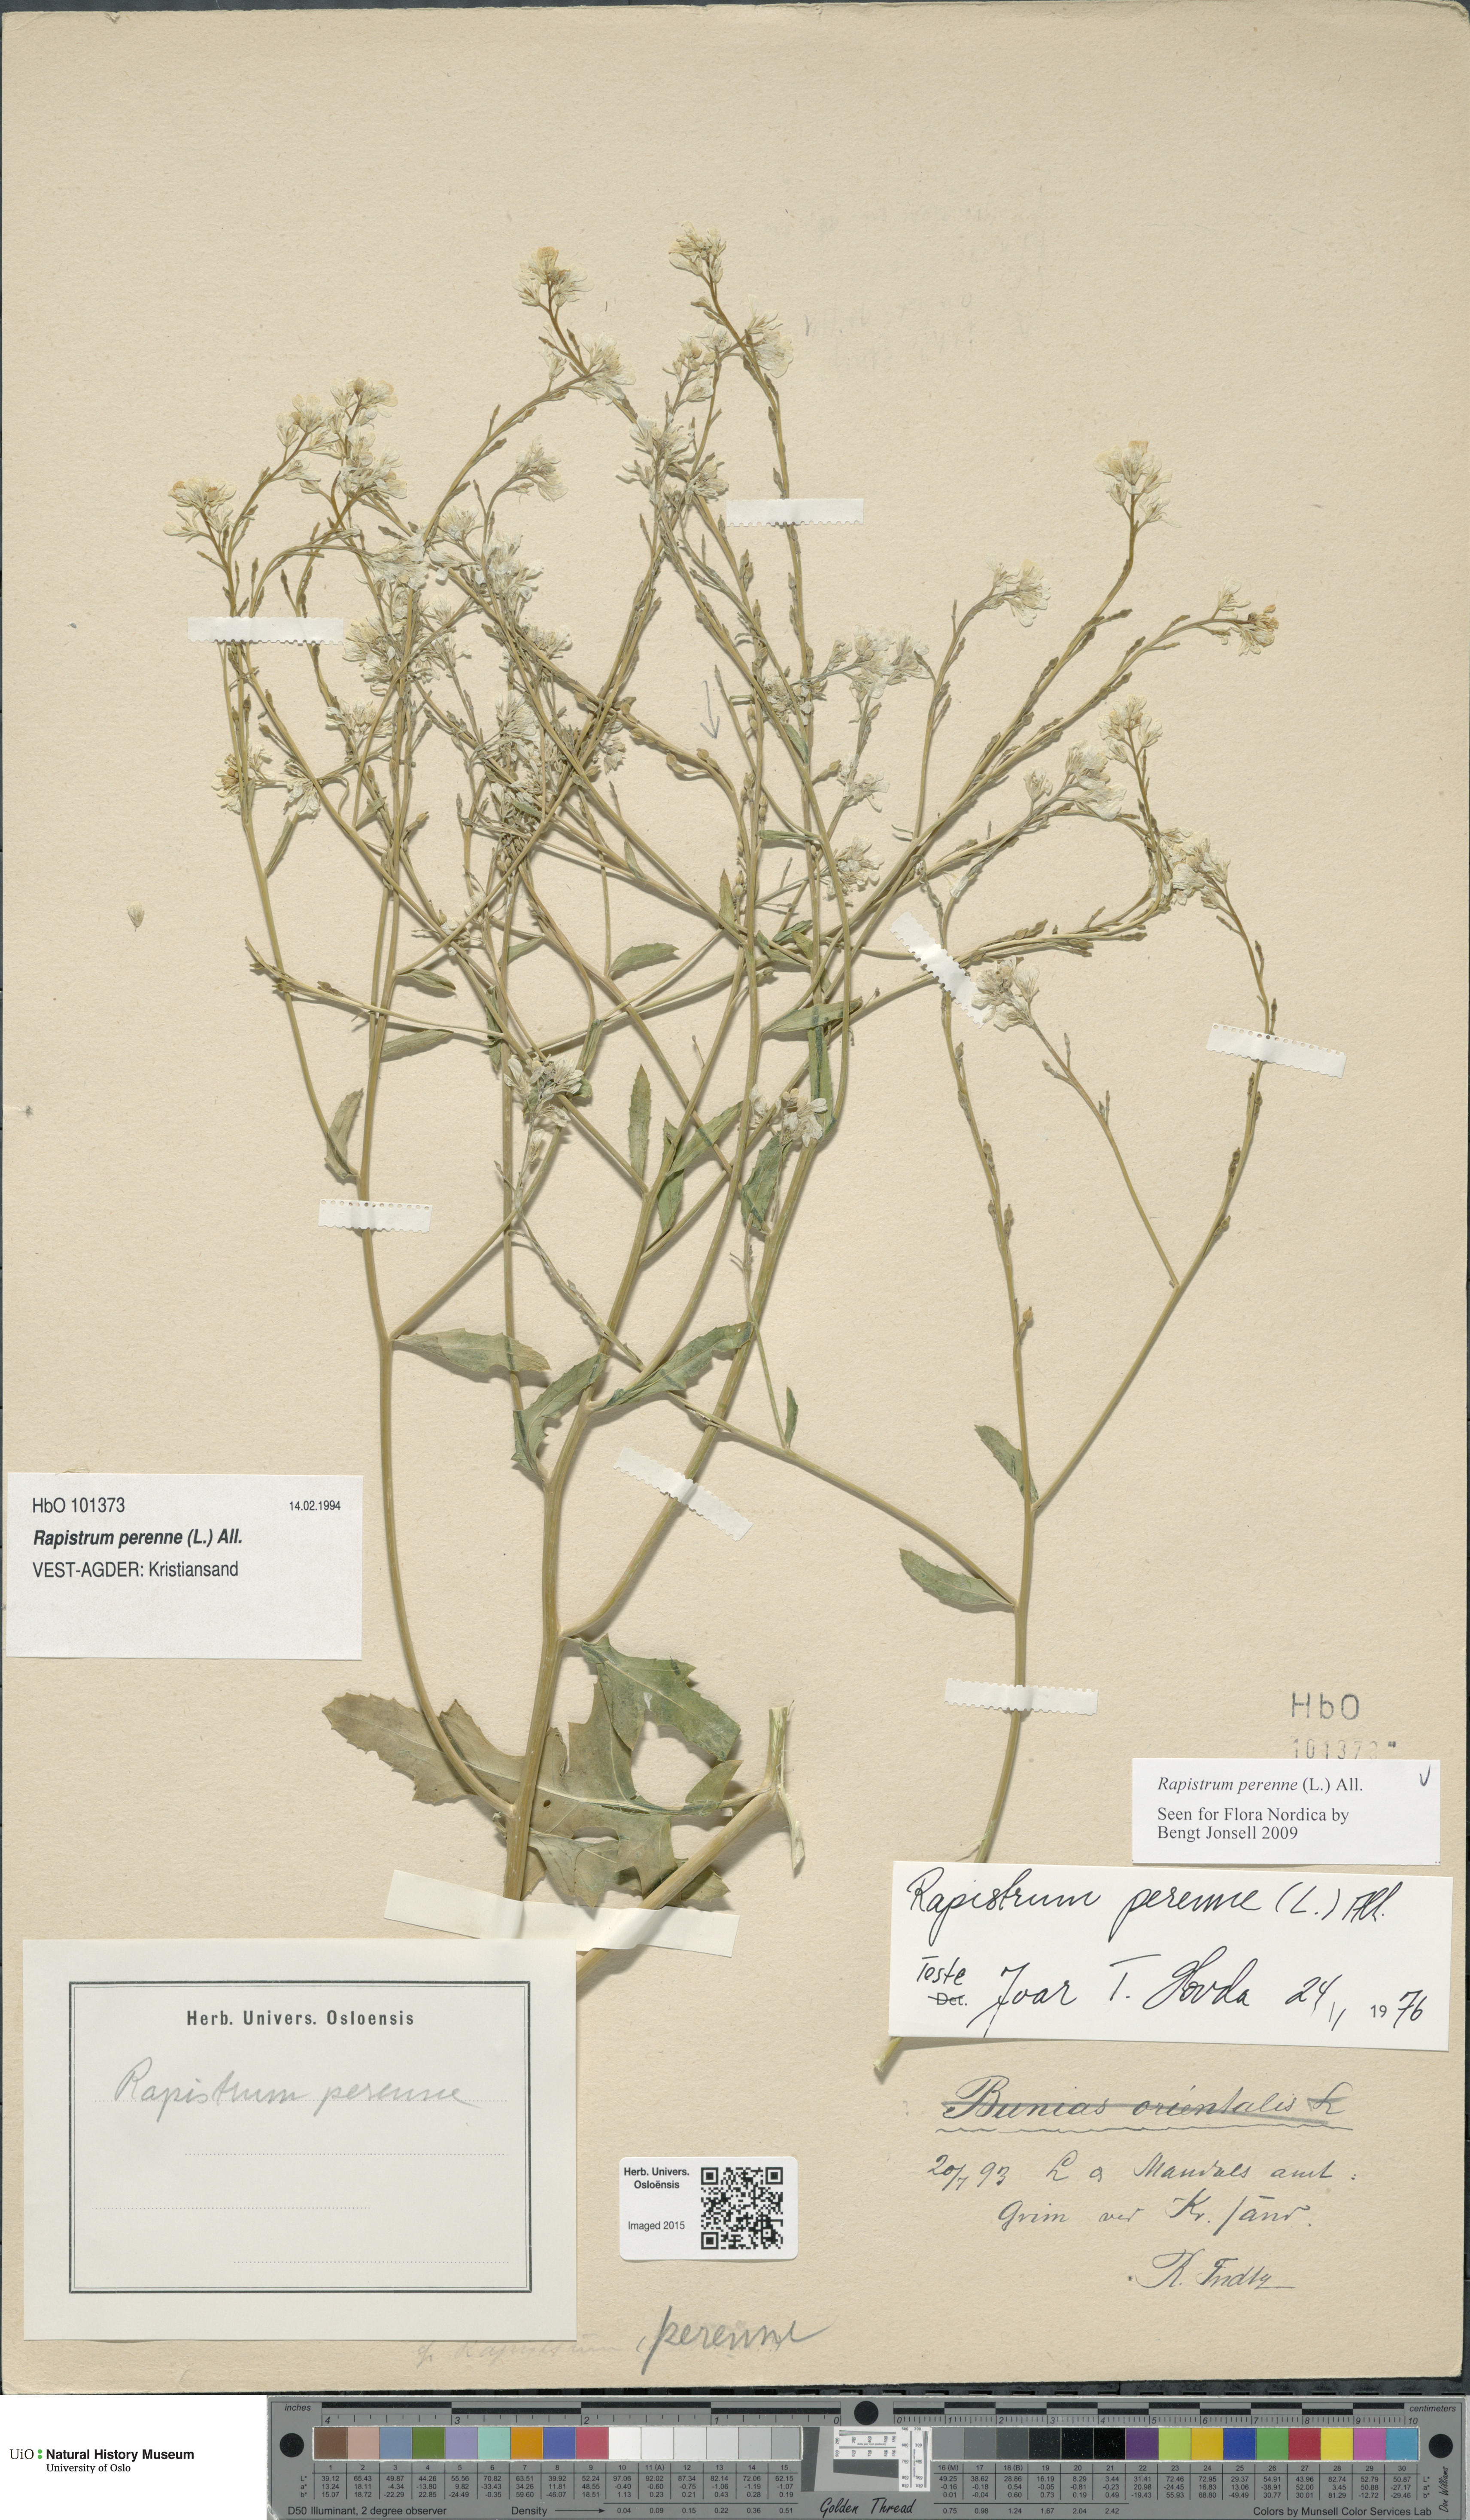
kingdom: Plantae
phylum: Tracheophyta
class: Magnoliopsida
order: Brassicales
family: Brassicaceae
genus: Rapistrum
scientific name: Rapistrum perenne
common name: Steppe cabbage
